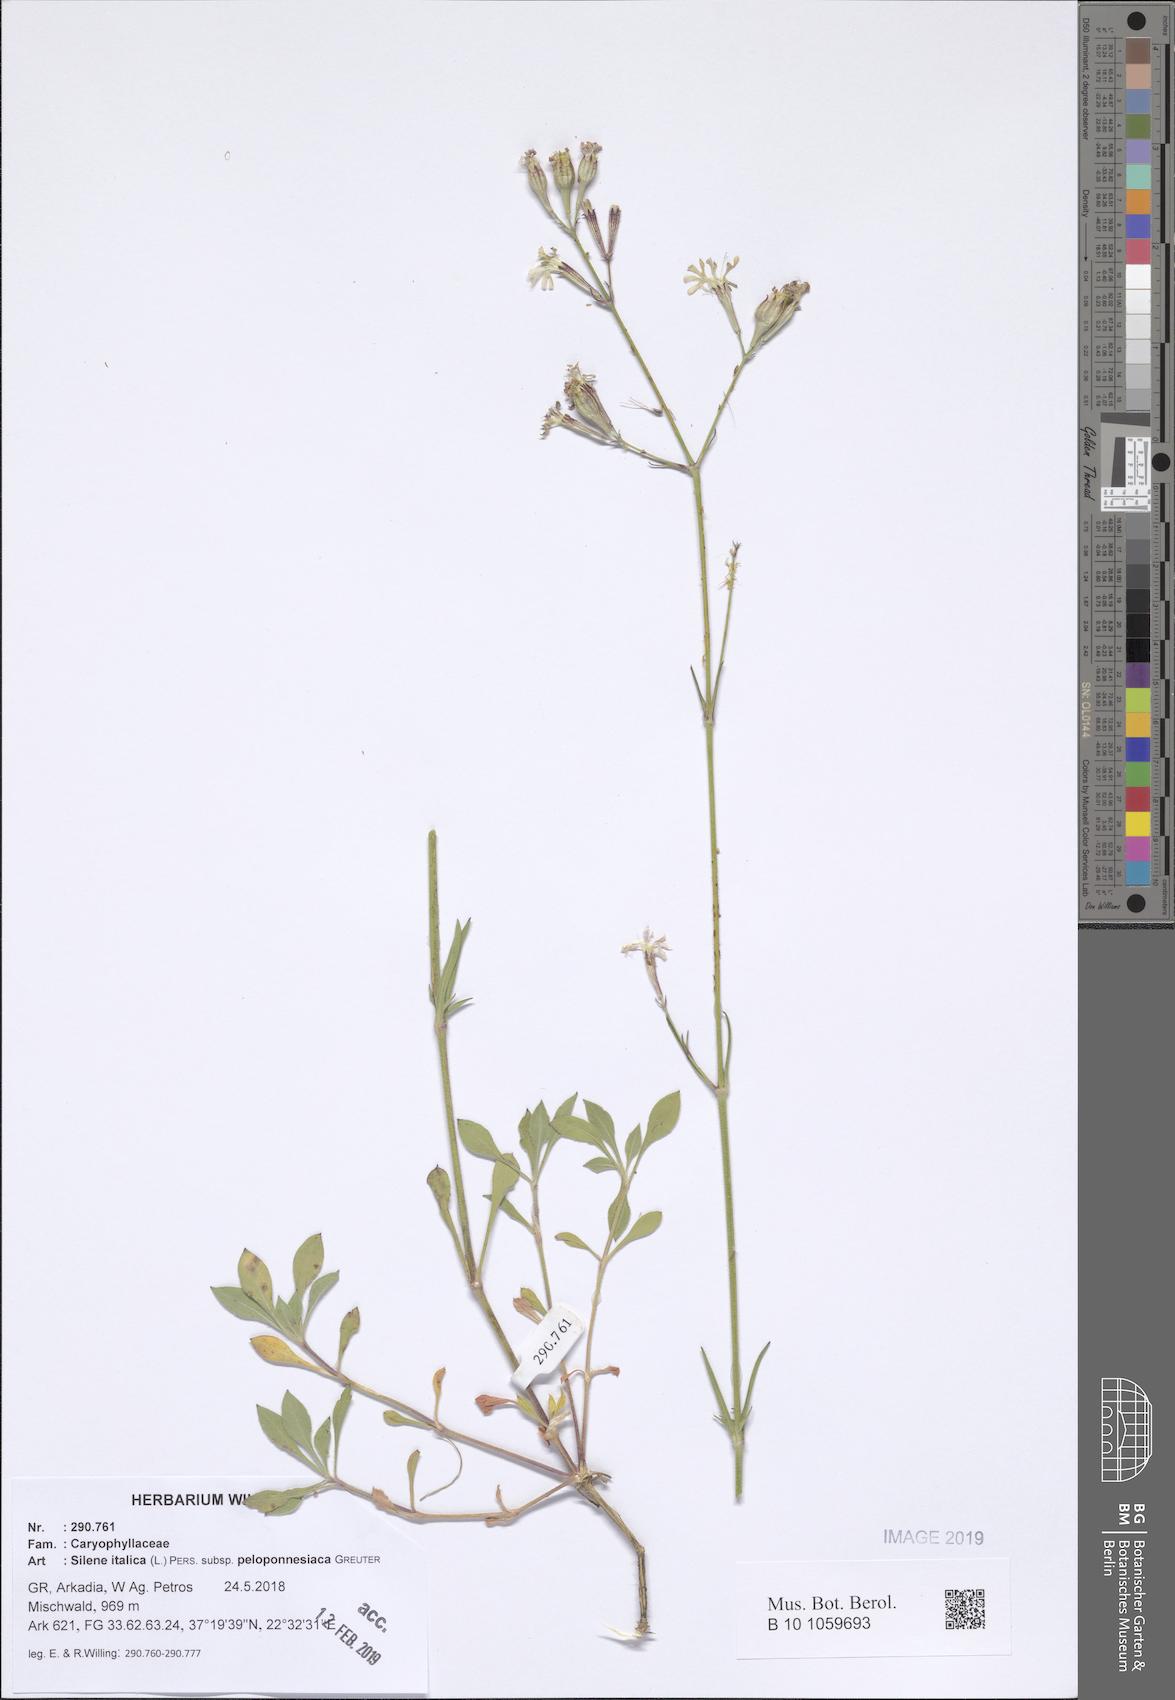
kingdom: Plantae
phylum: Tracheophyta
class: Magnoliopsida
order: Caryophyllales
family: Caryophyllaceae
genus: Silene
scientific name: Silene italica
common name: Italian catchfly
